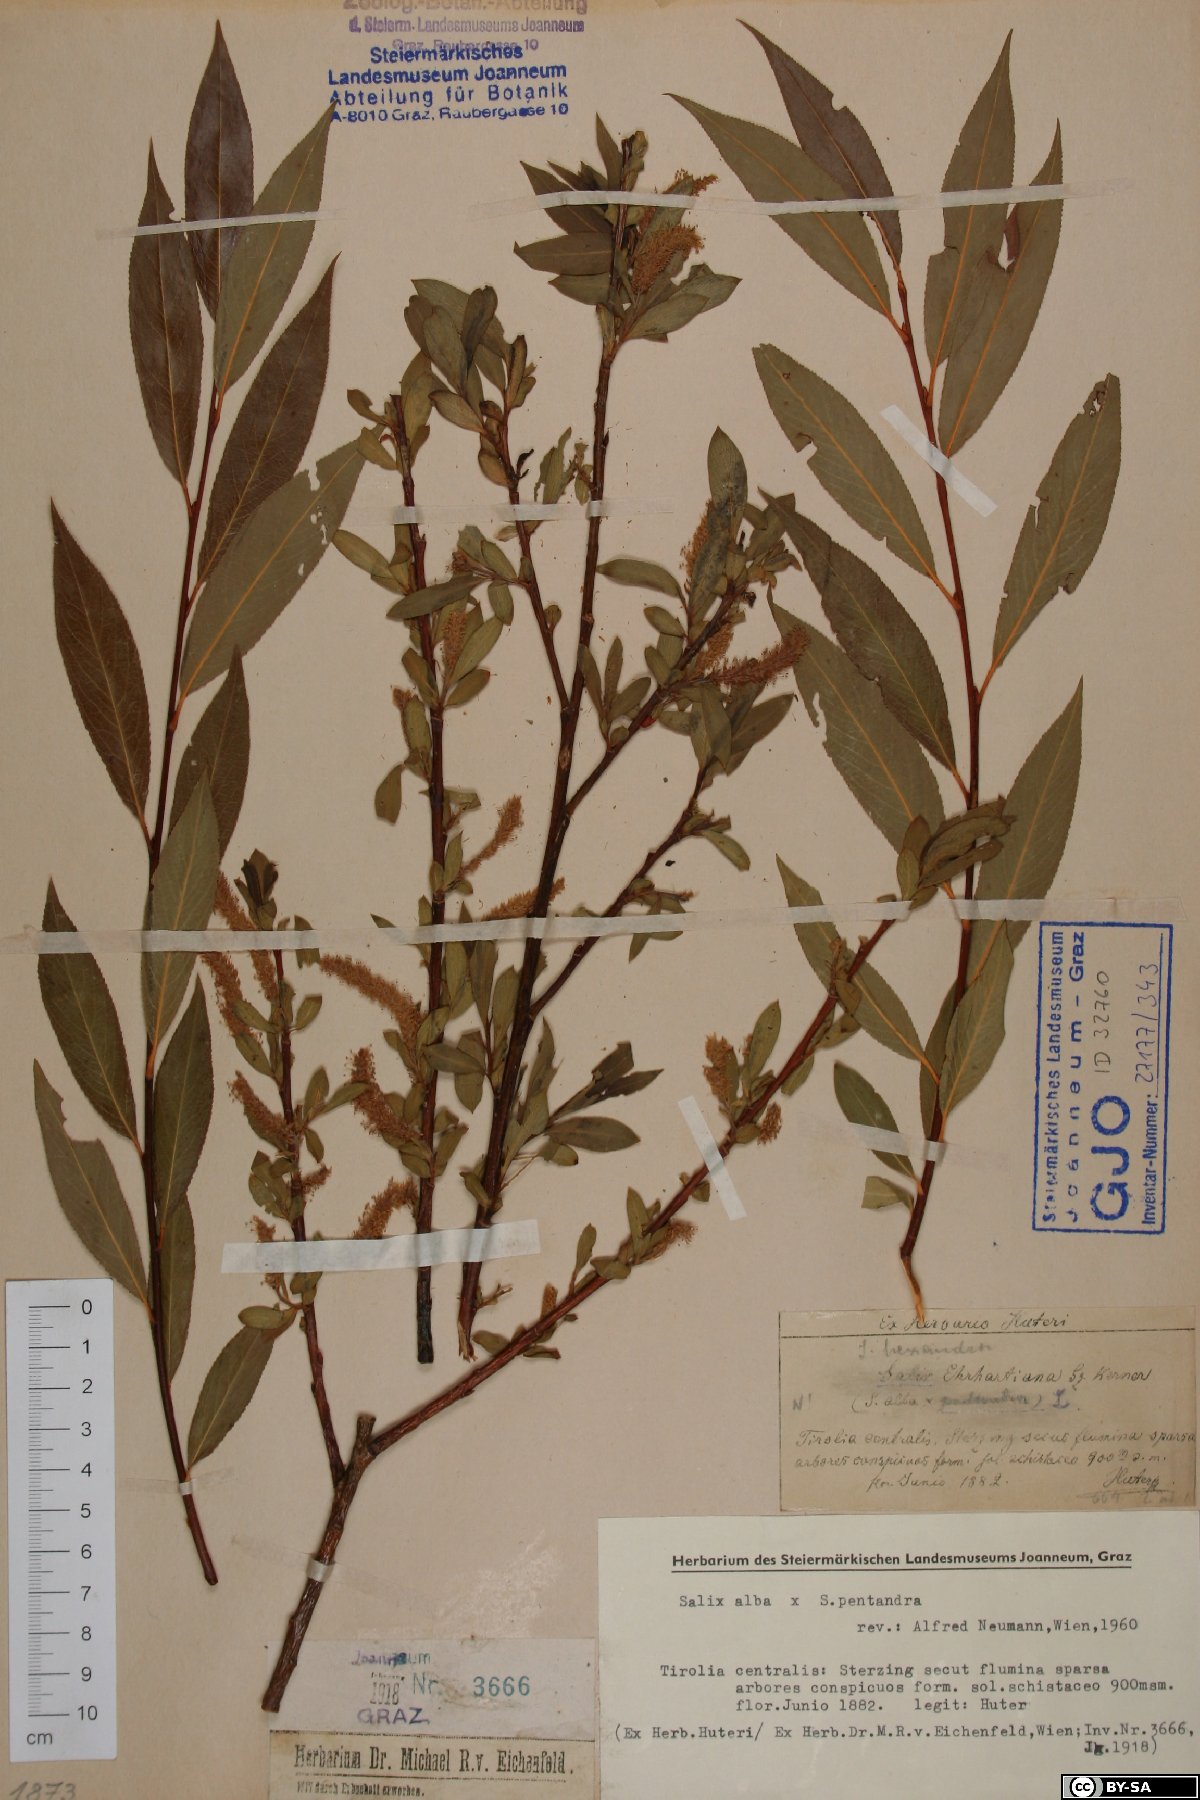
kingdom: Plantae
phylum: Tracheophyta
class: Magnoliopsida
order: Malpighiales
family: Salicaceae
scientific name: Salicaceae
